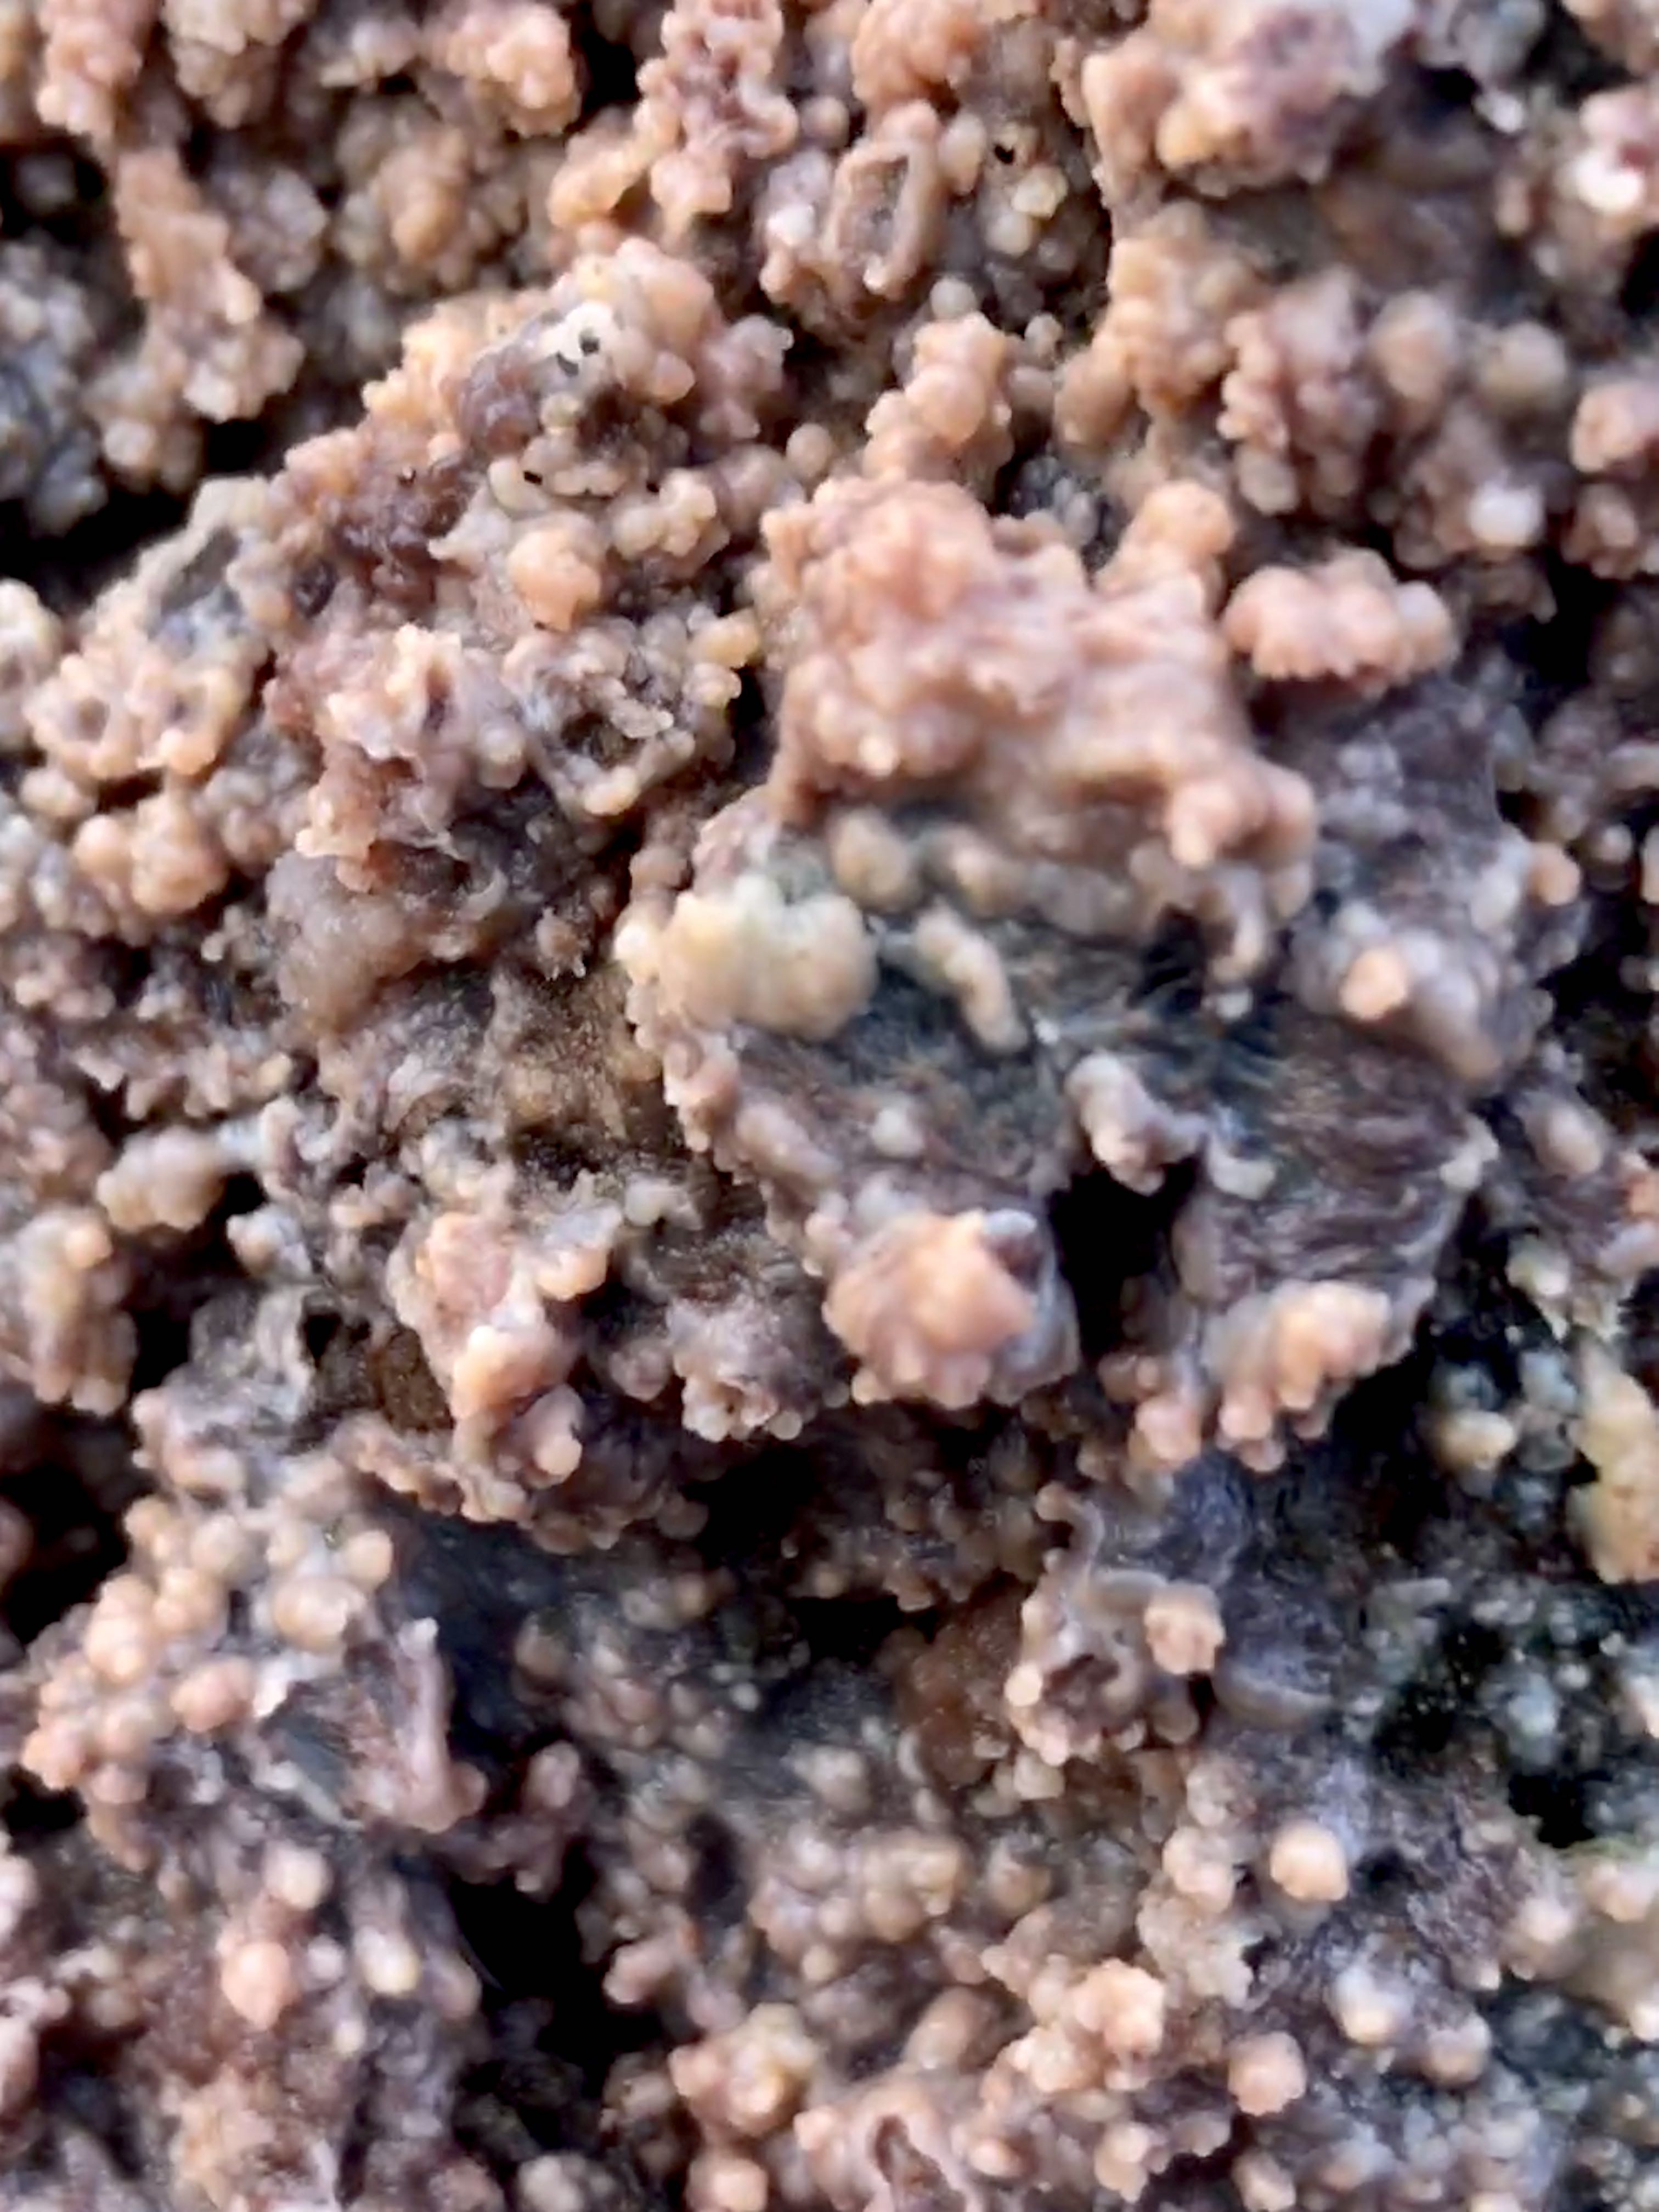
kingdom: Fungi
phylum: Basidiomycota
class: Agaricomycetes
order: Polyporales
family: Meruliaceae
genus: Phlebia
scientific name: Phlebia radiata
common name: stråle-åresvamp
